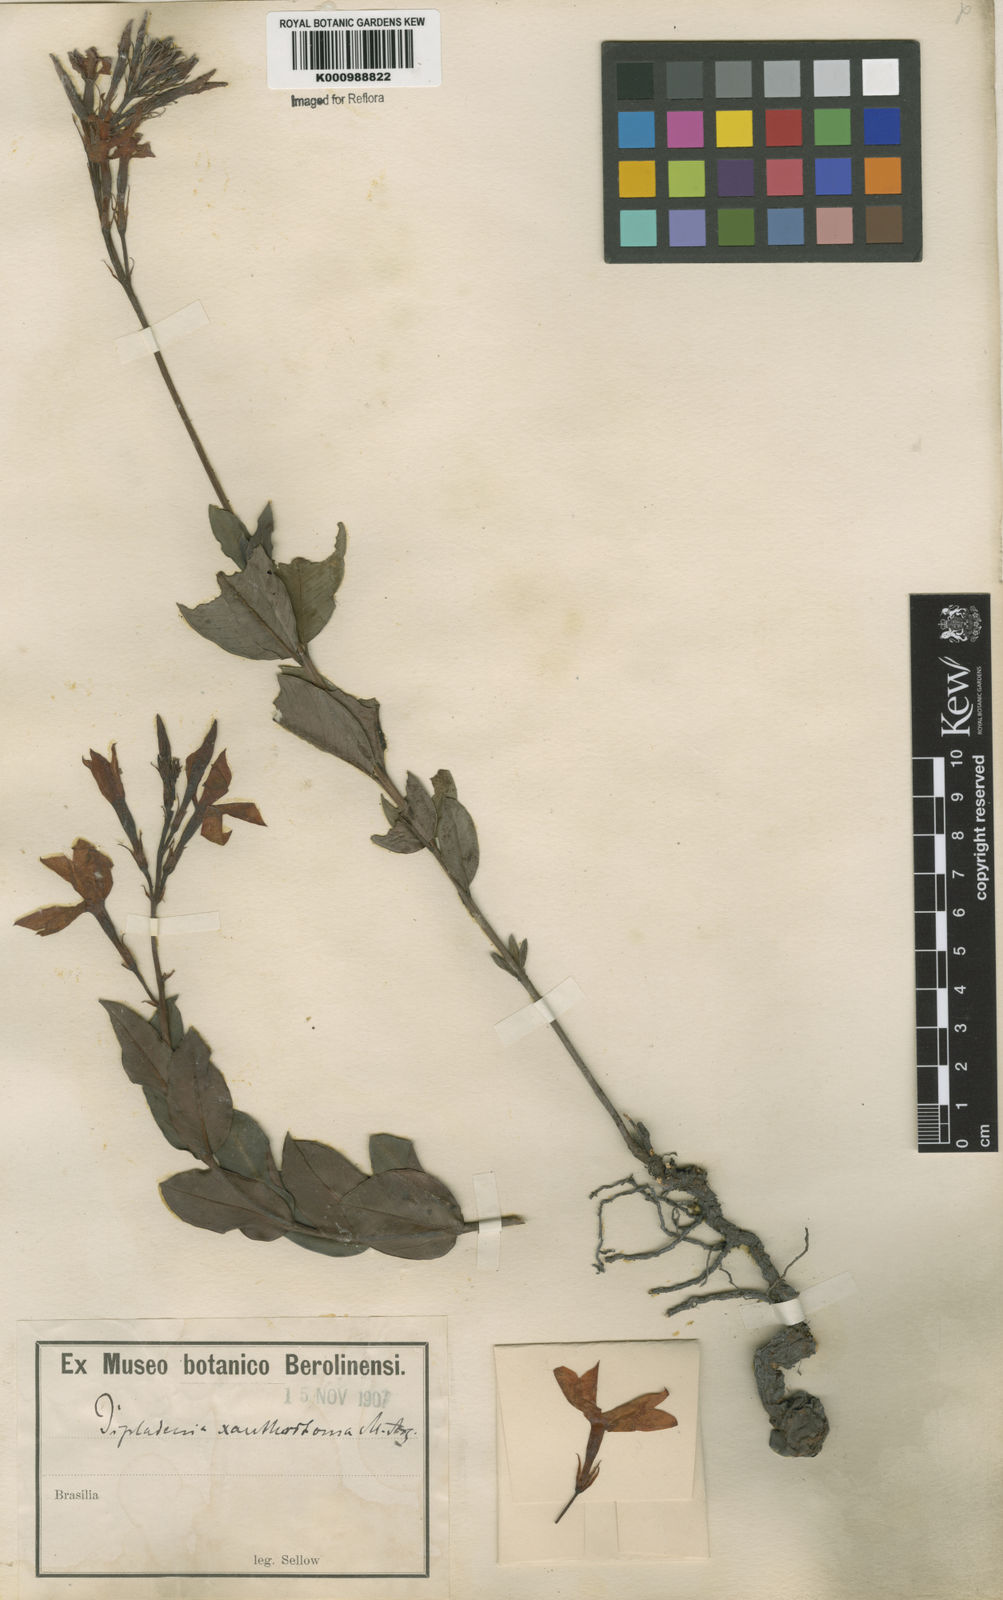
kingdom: Plantae
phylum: Tracheophyta
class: Magnoliopsida
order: Gentianales
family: Apocynaceae
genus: Mandevilla
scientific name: Mandevilla
